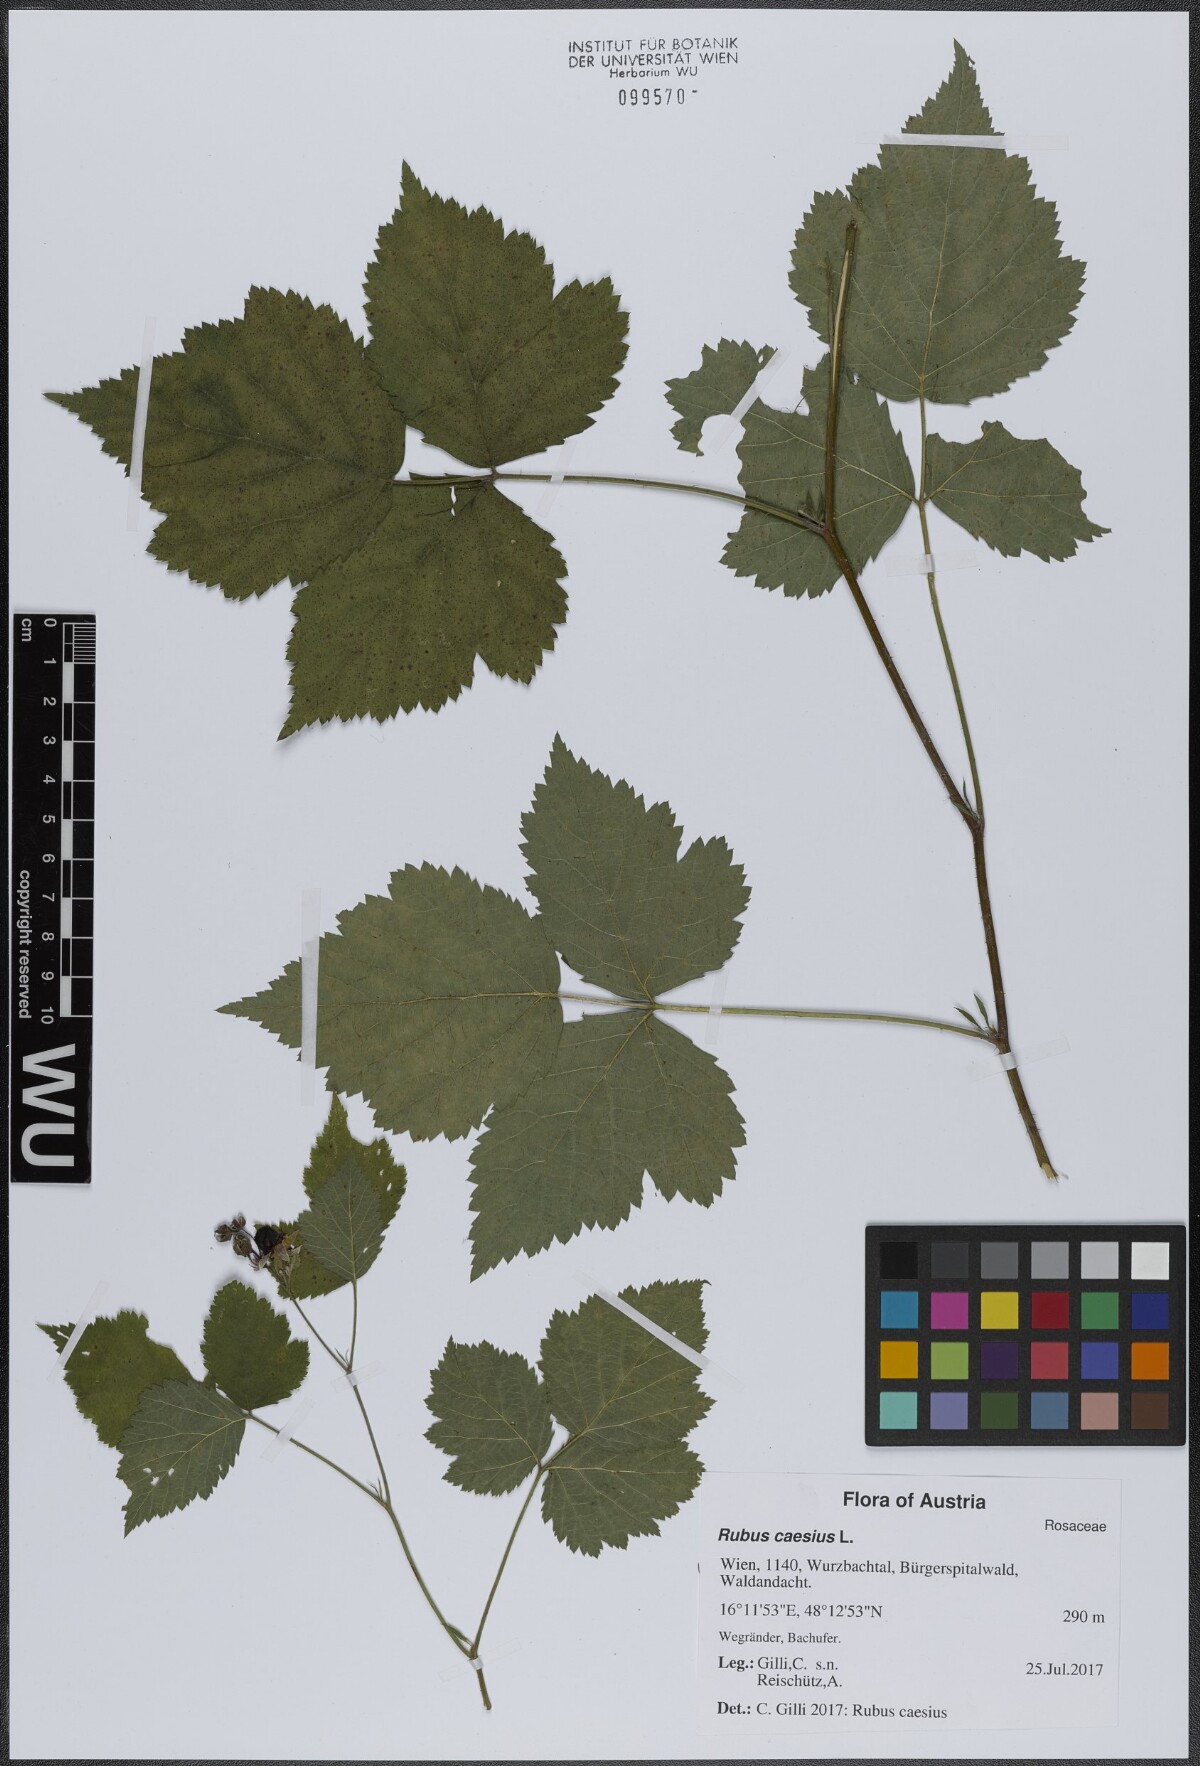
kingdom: Plantae
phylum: Tracheophyta
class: Magnoliopsida
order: Rosales
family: Rosaceae
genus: Rubus
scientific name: Rubus caesius
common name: Dewberry
